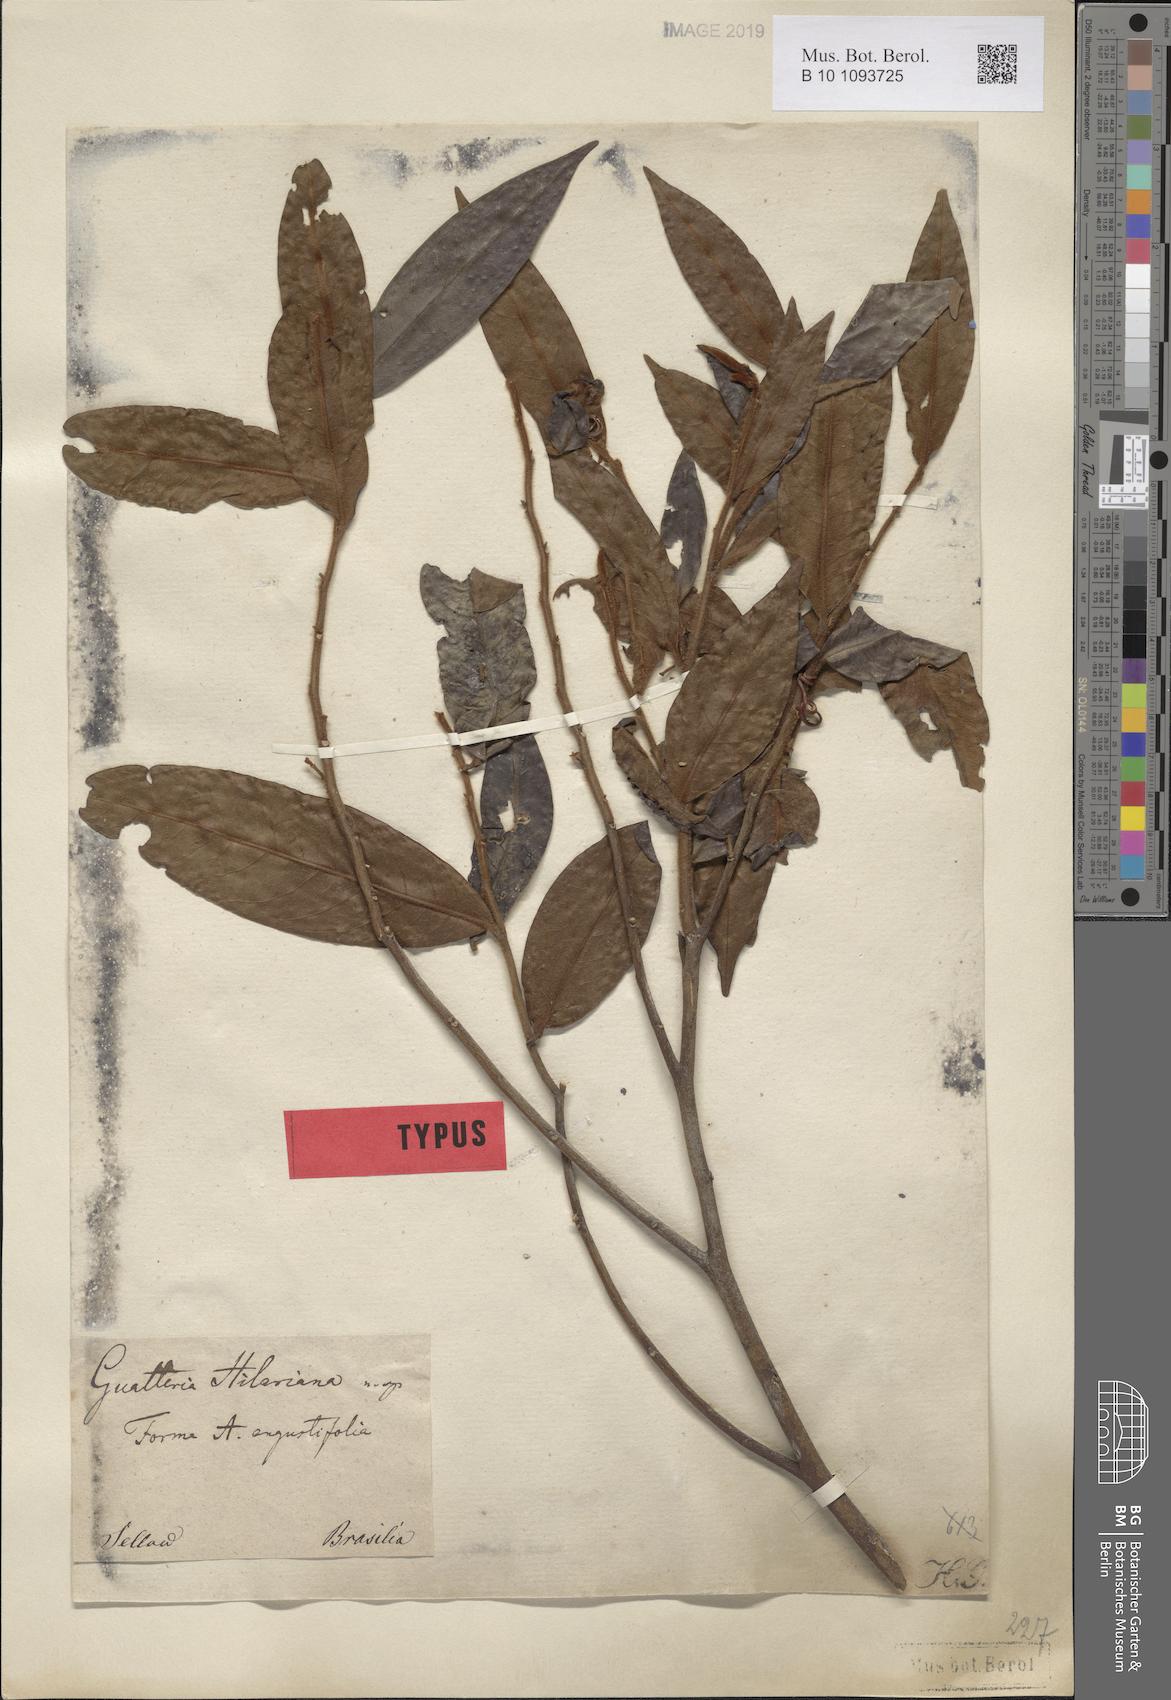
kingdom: Plantae
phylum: Tracheophyta
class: Magnoliopsida
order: Magnoliales
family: Annonaceae
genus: Guatteria
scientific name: Guatteria australis
